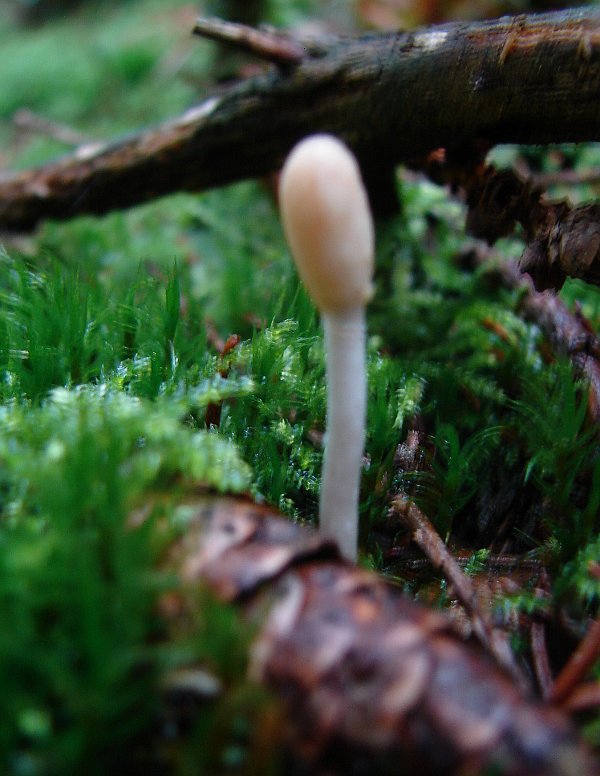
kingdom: Fungi
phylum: Ascomycota
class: Sordariomycetes
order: Hypocreales
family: Hypocreaceae
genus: Trichoderma
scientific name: Trichoderma leucopus
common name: lysstokket kødkerne
